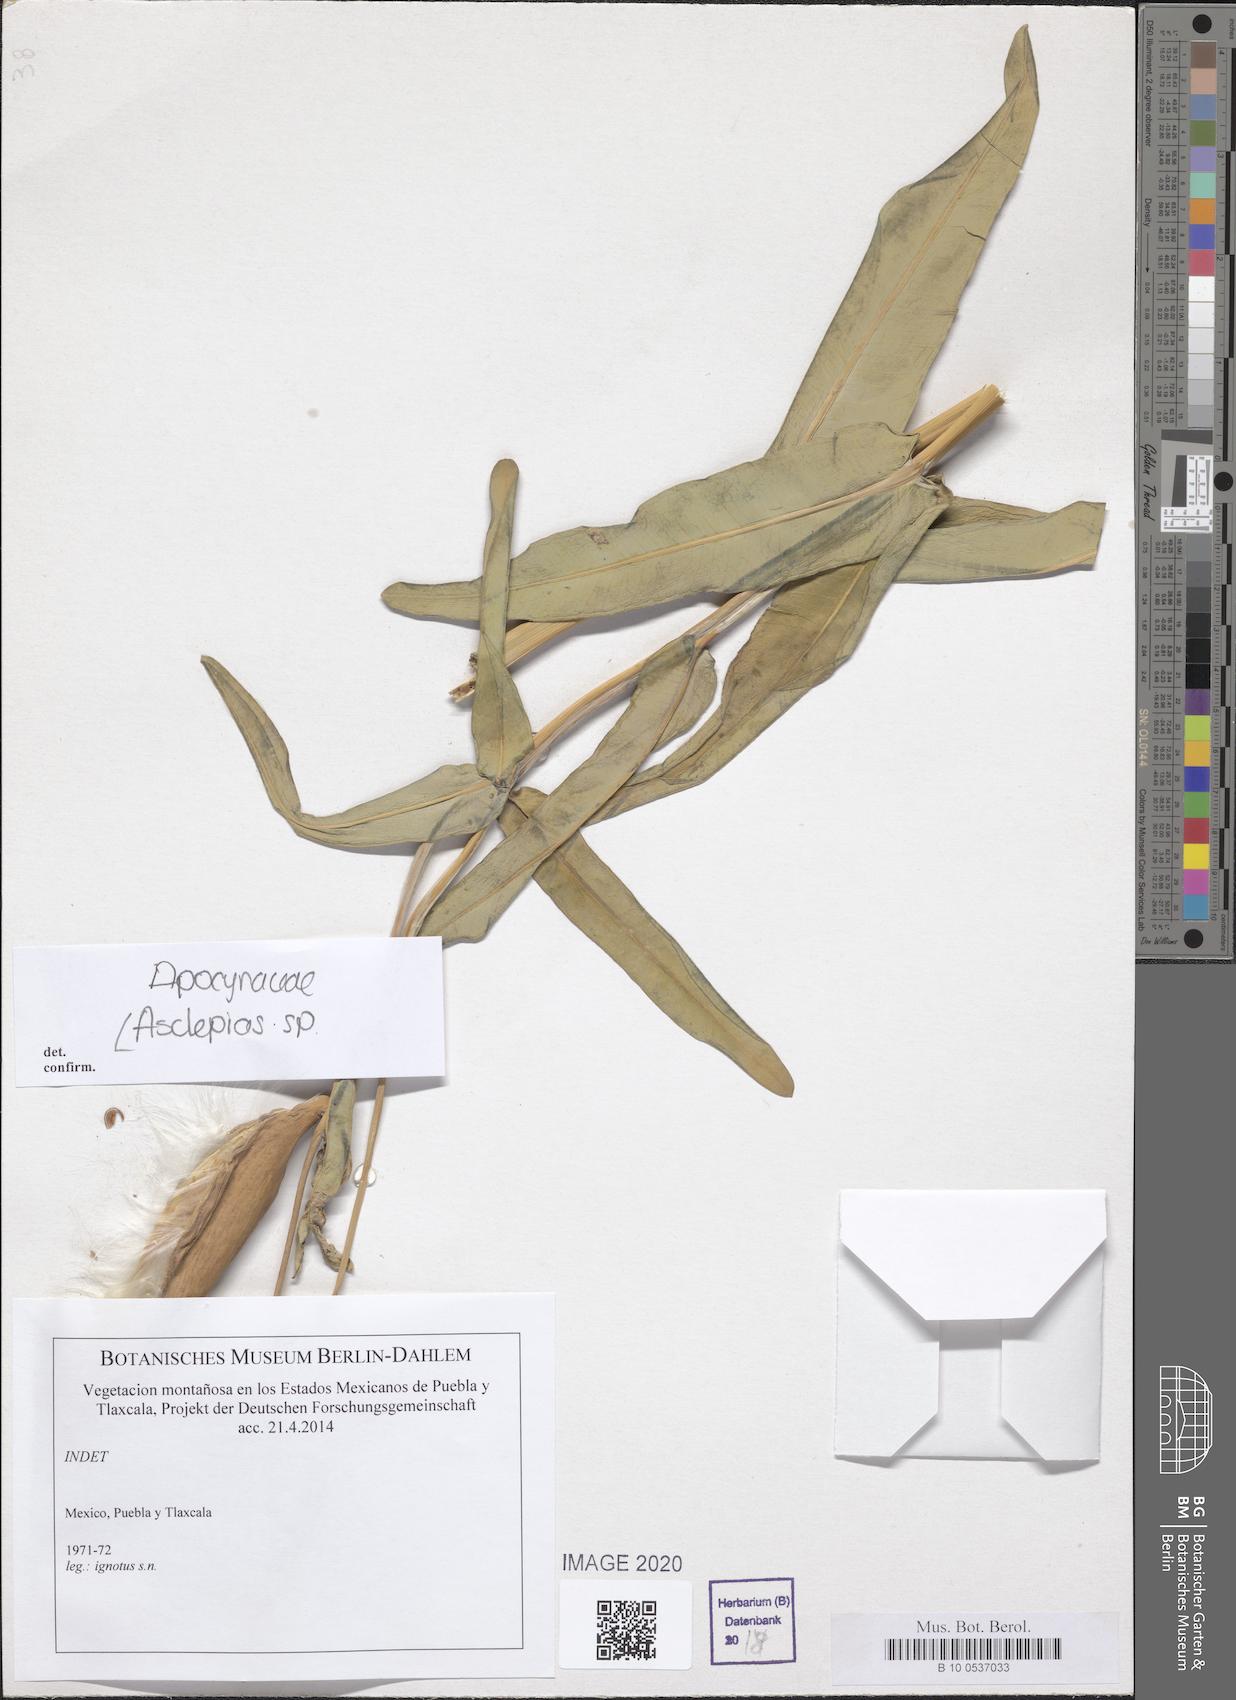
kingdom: Plantae
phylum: Tracheophyta
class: Magnoliopsida
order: Gentianales
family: Apocynaceae
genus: Asclepias
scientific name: Asclepias
